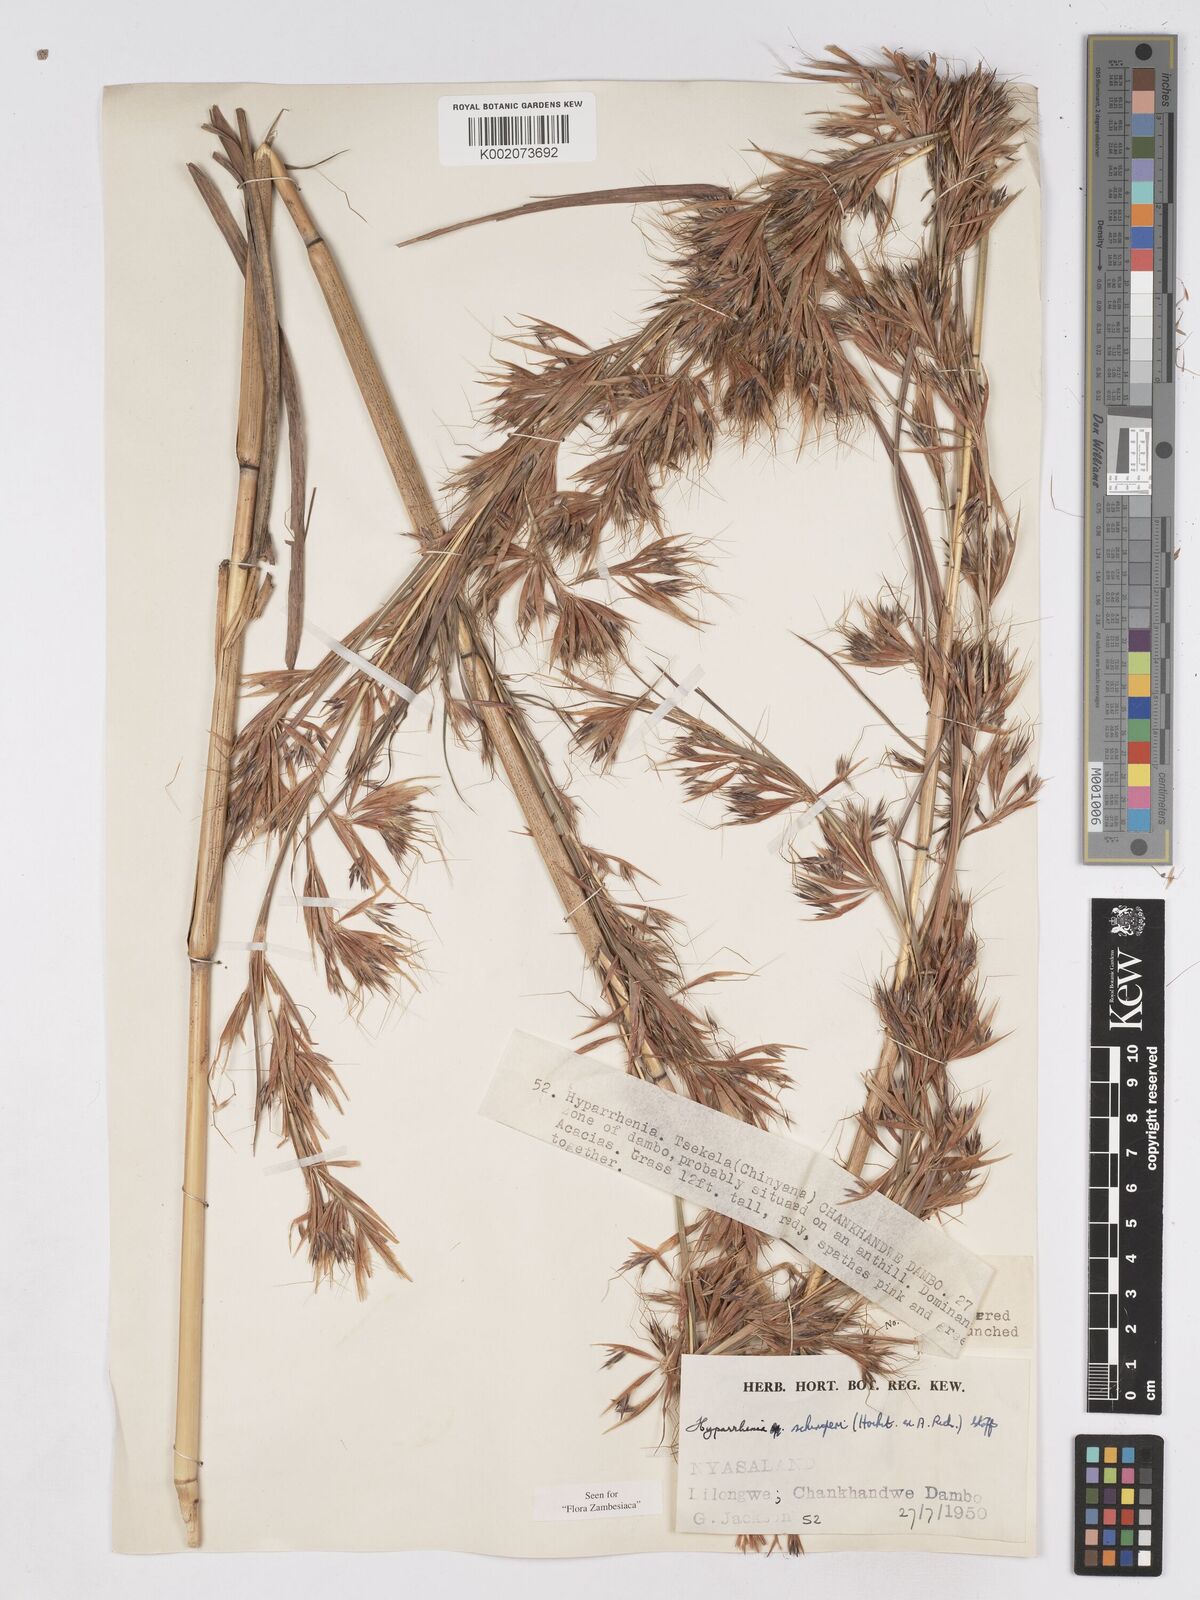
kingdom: Plantae
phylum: Tracheophyta
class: Liliopsida
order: Poales
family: Poaceae
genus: Hyparrhenia
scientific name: Hyparrhenia schimperi
